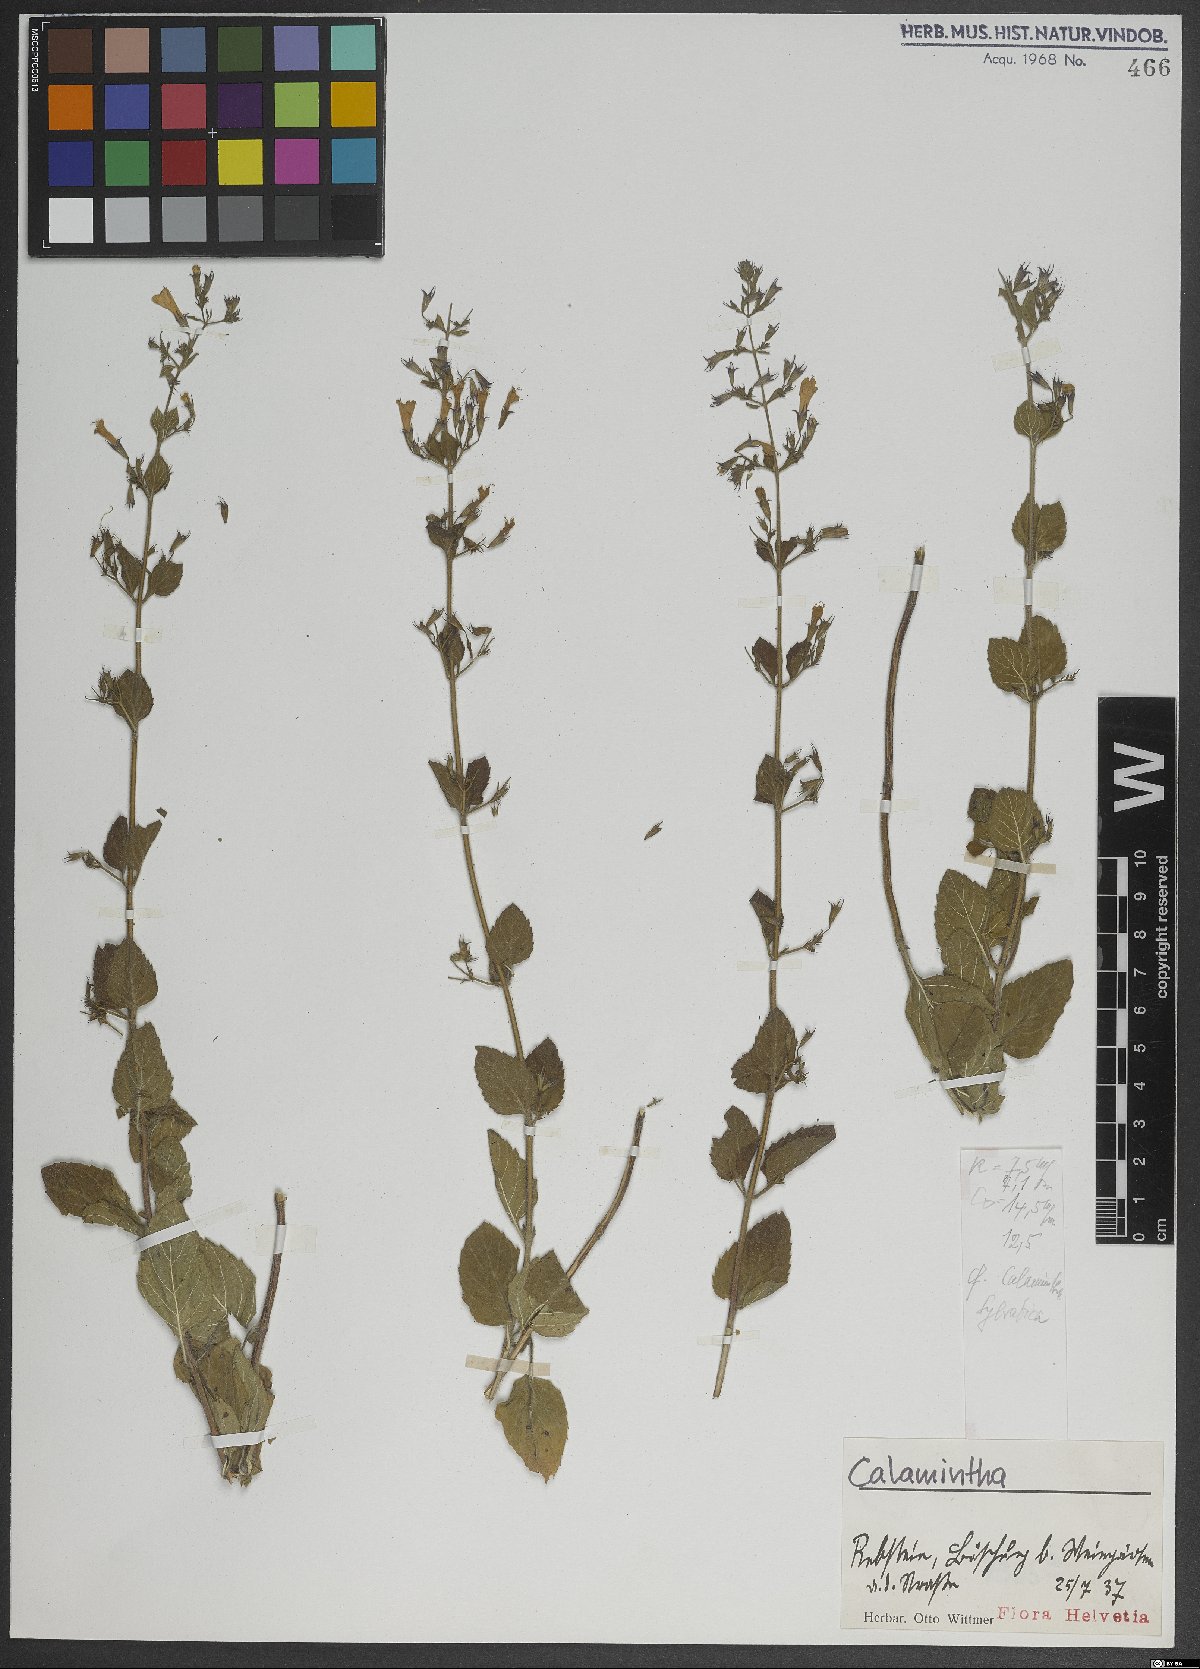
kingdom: Plantae
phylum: Tracheophyta
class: Magnoliopsida
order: Lamiales
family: Lamiaceae
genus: Clinopodium
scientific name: Clinopodium menthifolium
